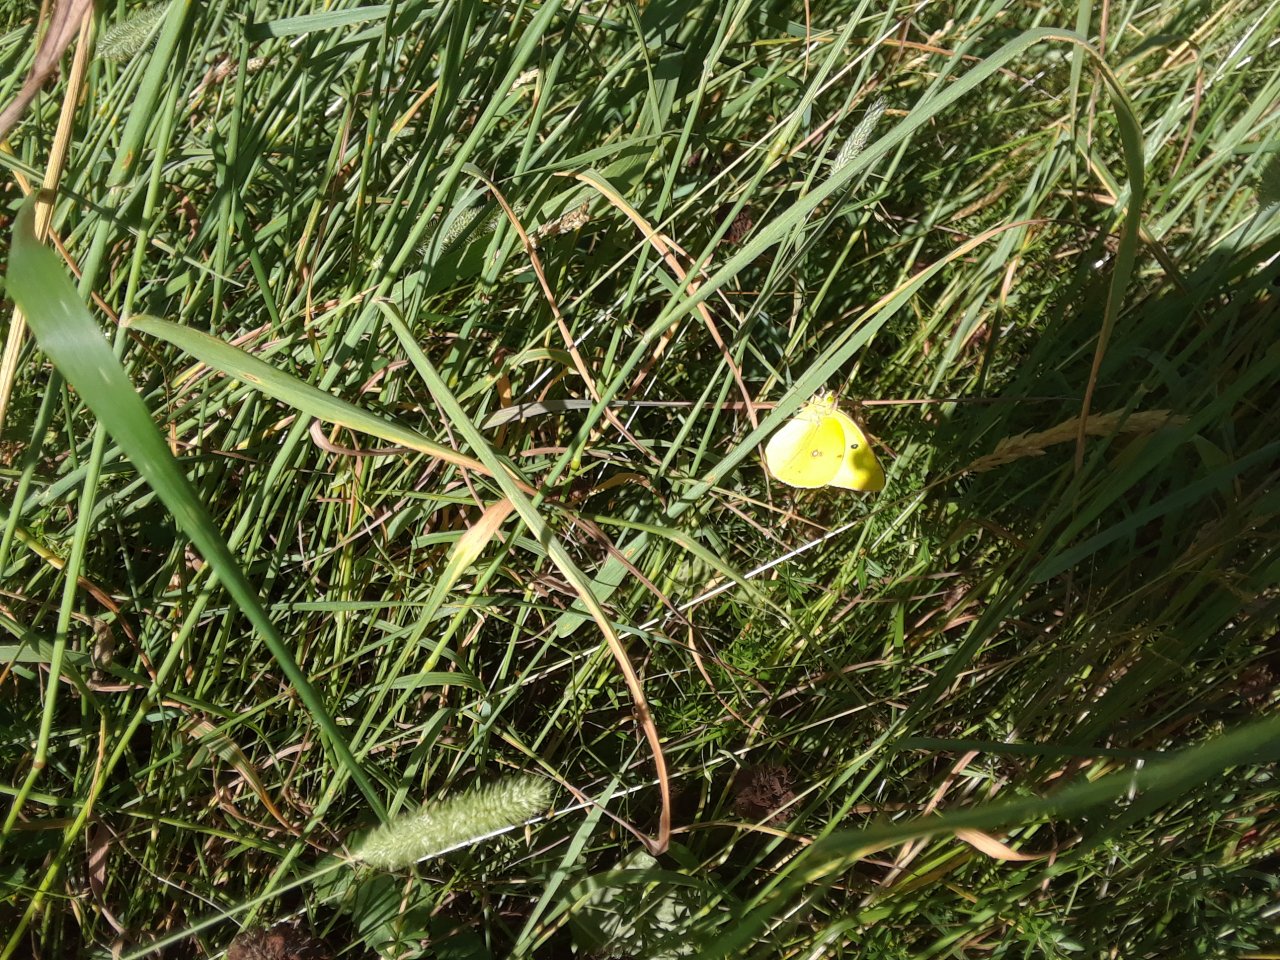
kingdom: Animalia
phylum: Arthropoda
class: Insecta
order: Lepidoptera
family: Pieridae
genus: Colias
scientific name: Colias philodice
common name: Clouded Sulphur
